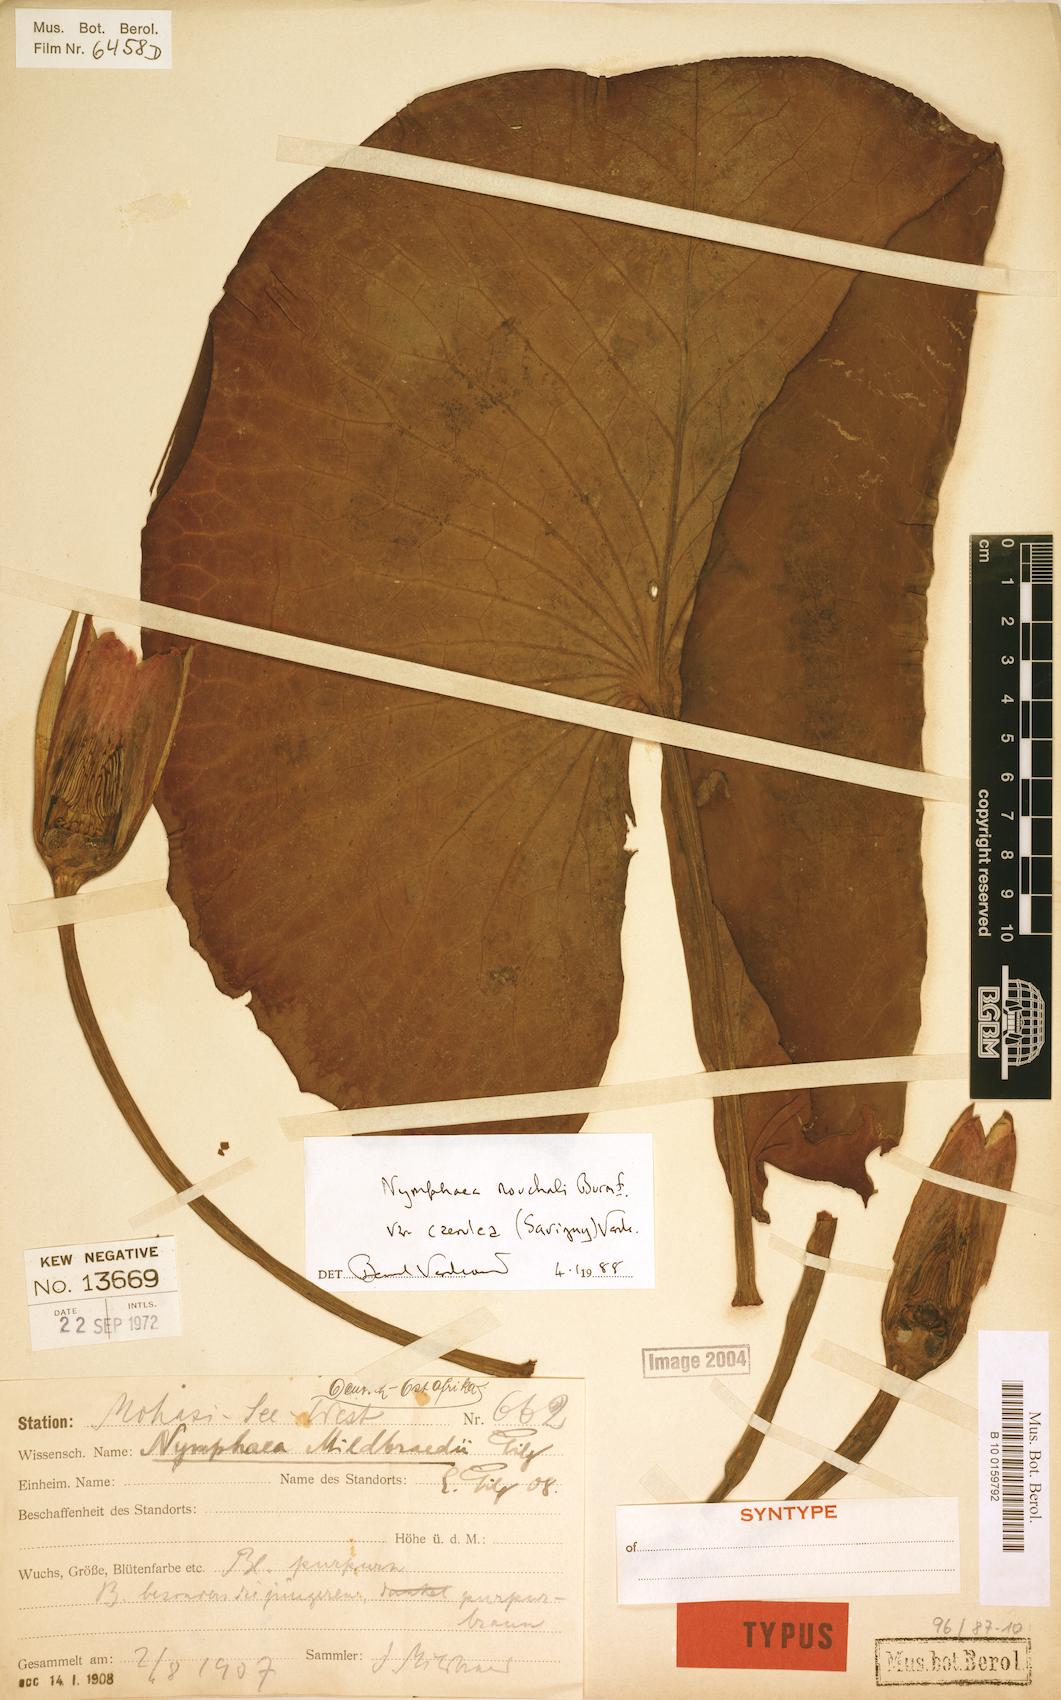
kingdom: Plantae
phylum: Tracheophyta
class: Magnoliopsida
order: Nymphaeales
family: Nymphaeaceae
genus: Nymphaea
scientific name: Nymphaea nouchali
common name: Blue lotus
